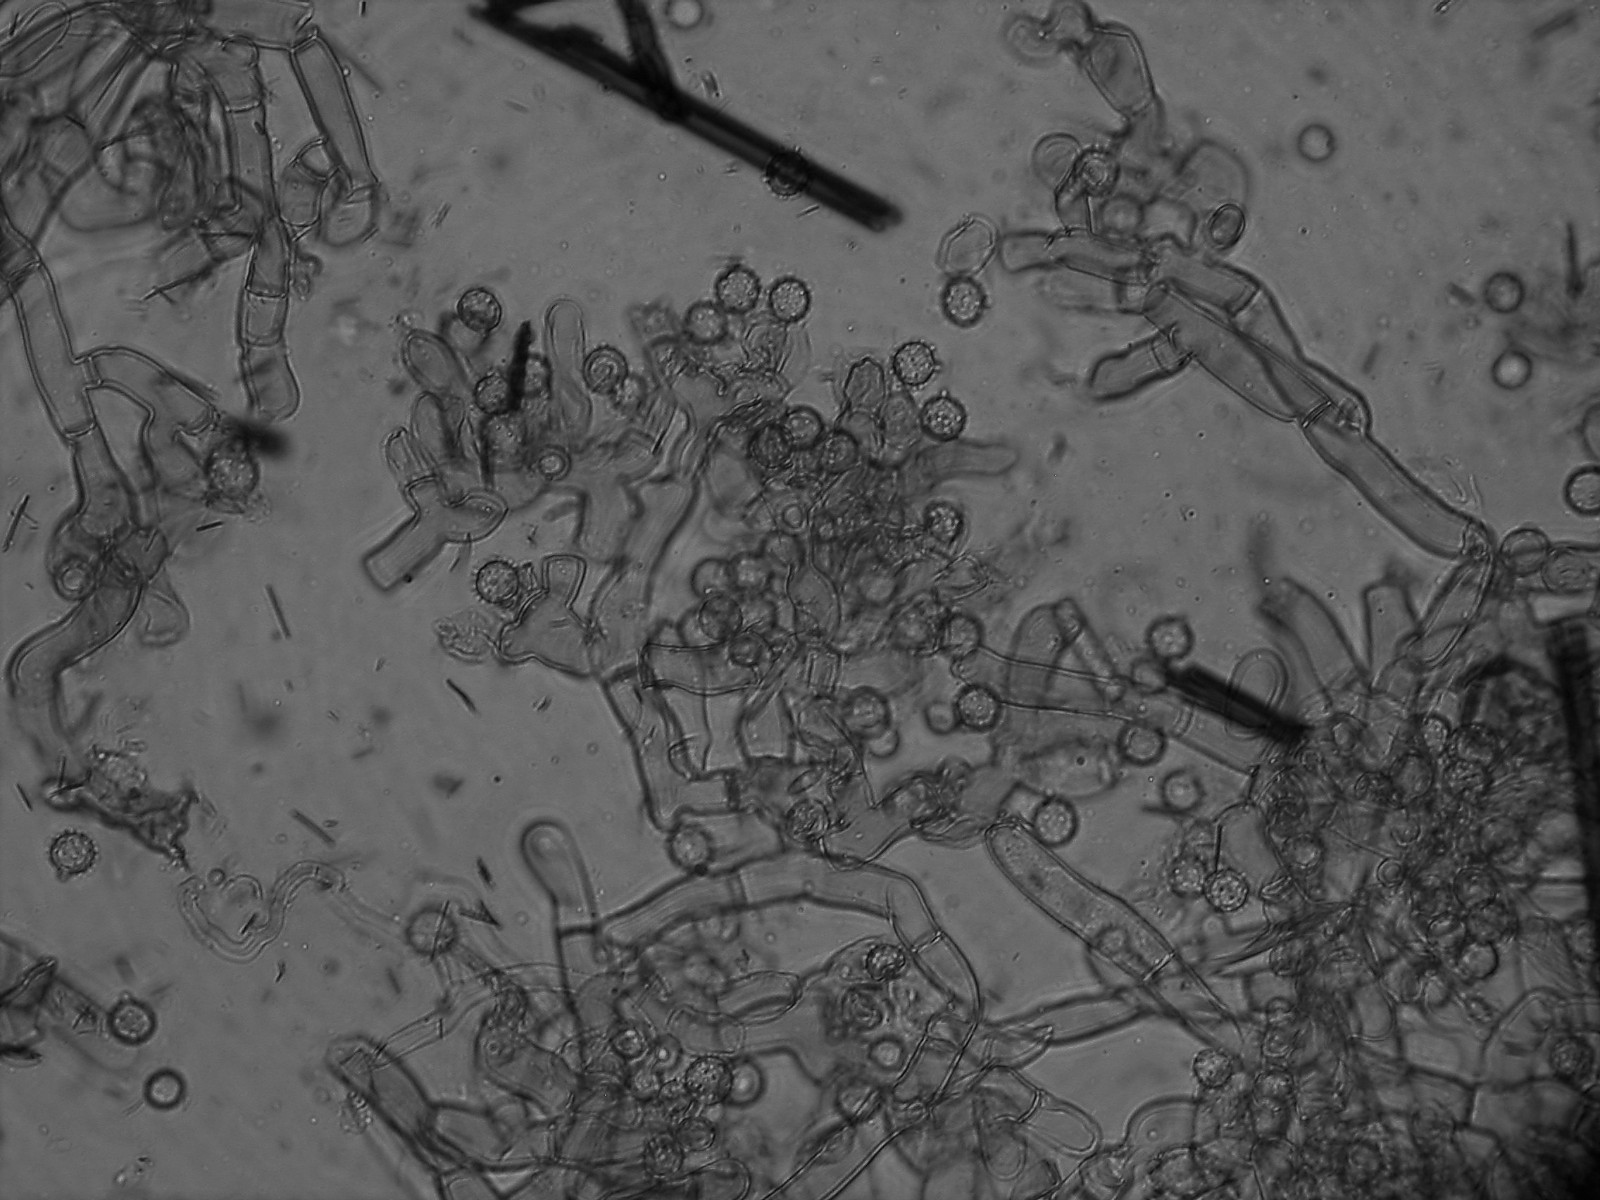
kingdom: Fungi
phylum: Basidiomycota
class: Agaricomycetes
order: Cantharellales
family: Botryobasidiaceae
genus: Botryobasidium
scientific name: Botryobasidium isabellinum
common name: isabellafarvet spindhinde
